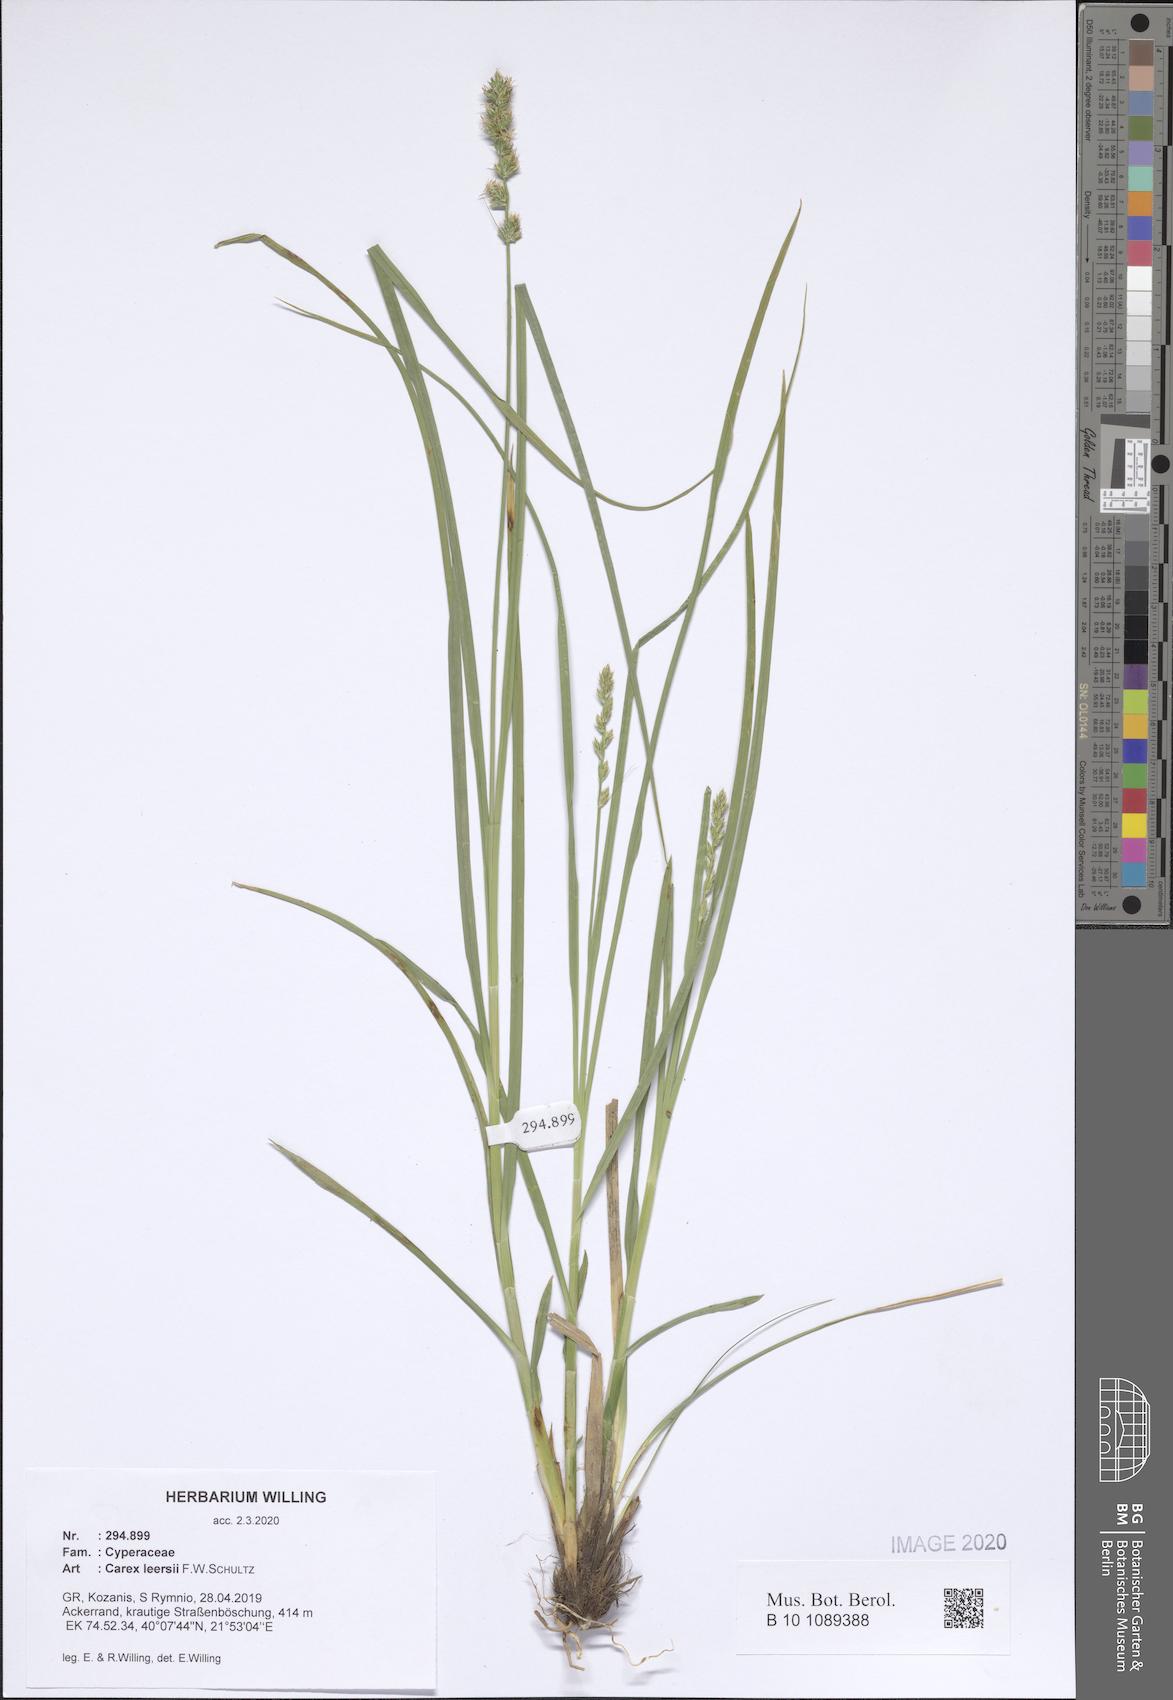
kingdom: Plantae
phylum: Tracheophyta
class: Liliopsida
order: Poales
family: Cyperaceae
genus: Carex
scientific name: Carex leersii
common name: Leers' sedge
